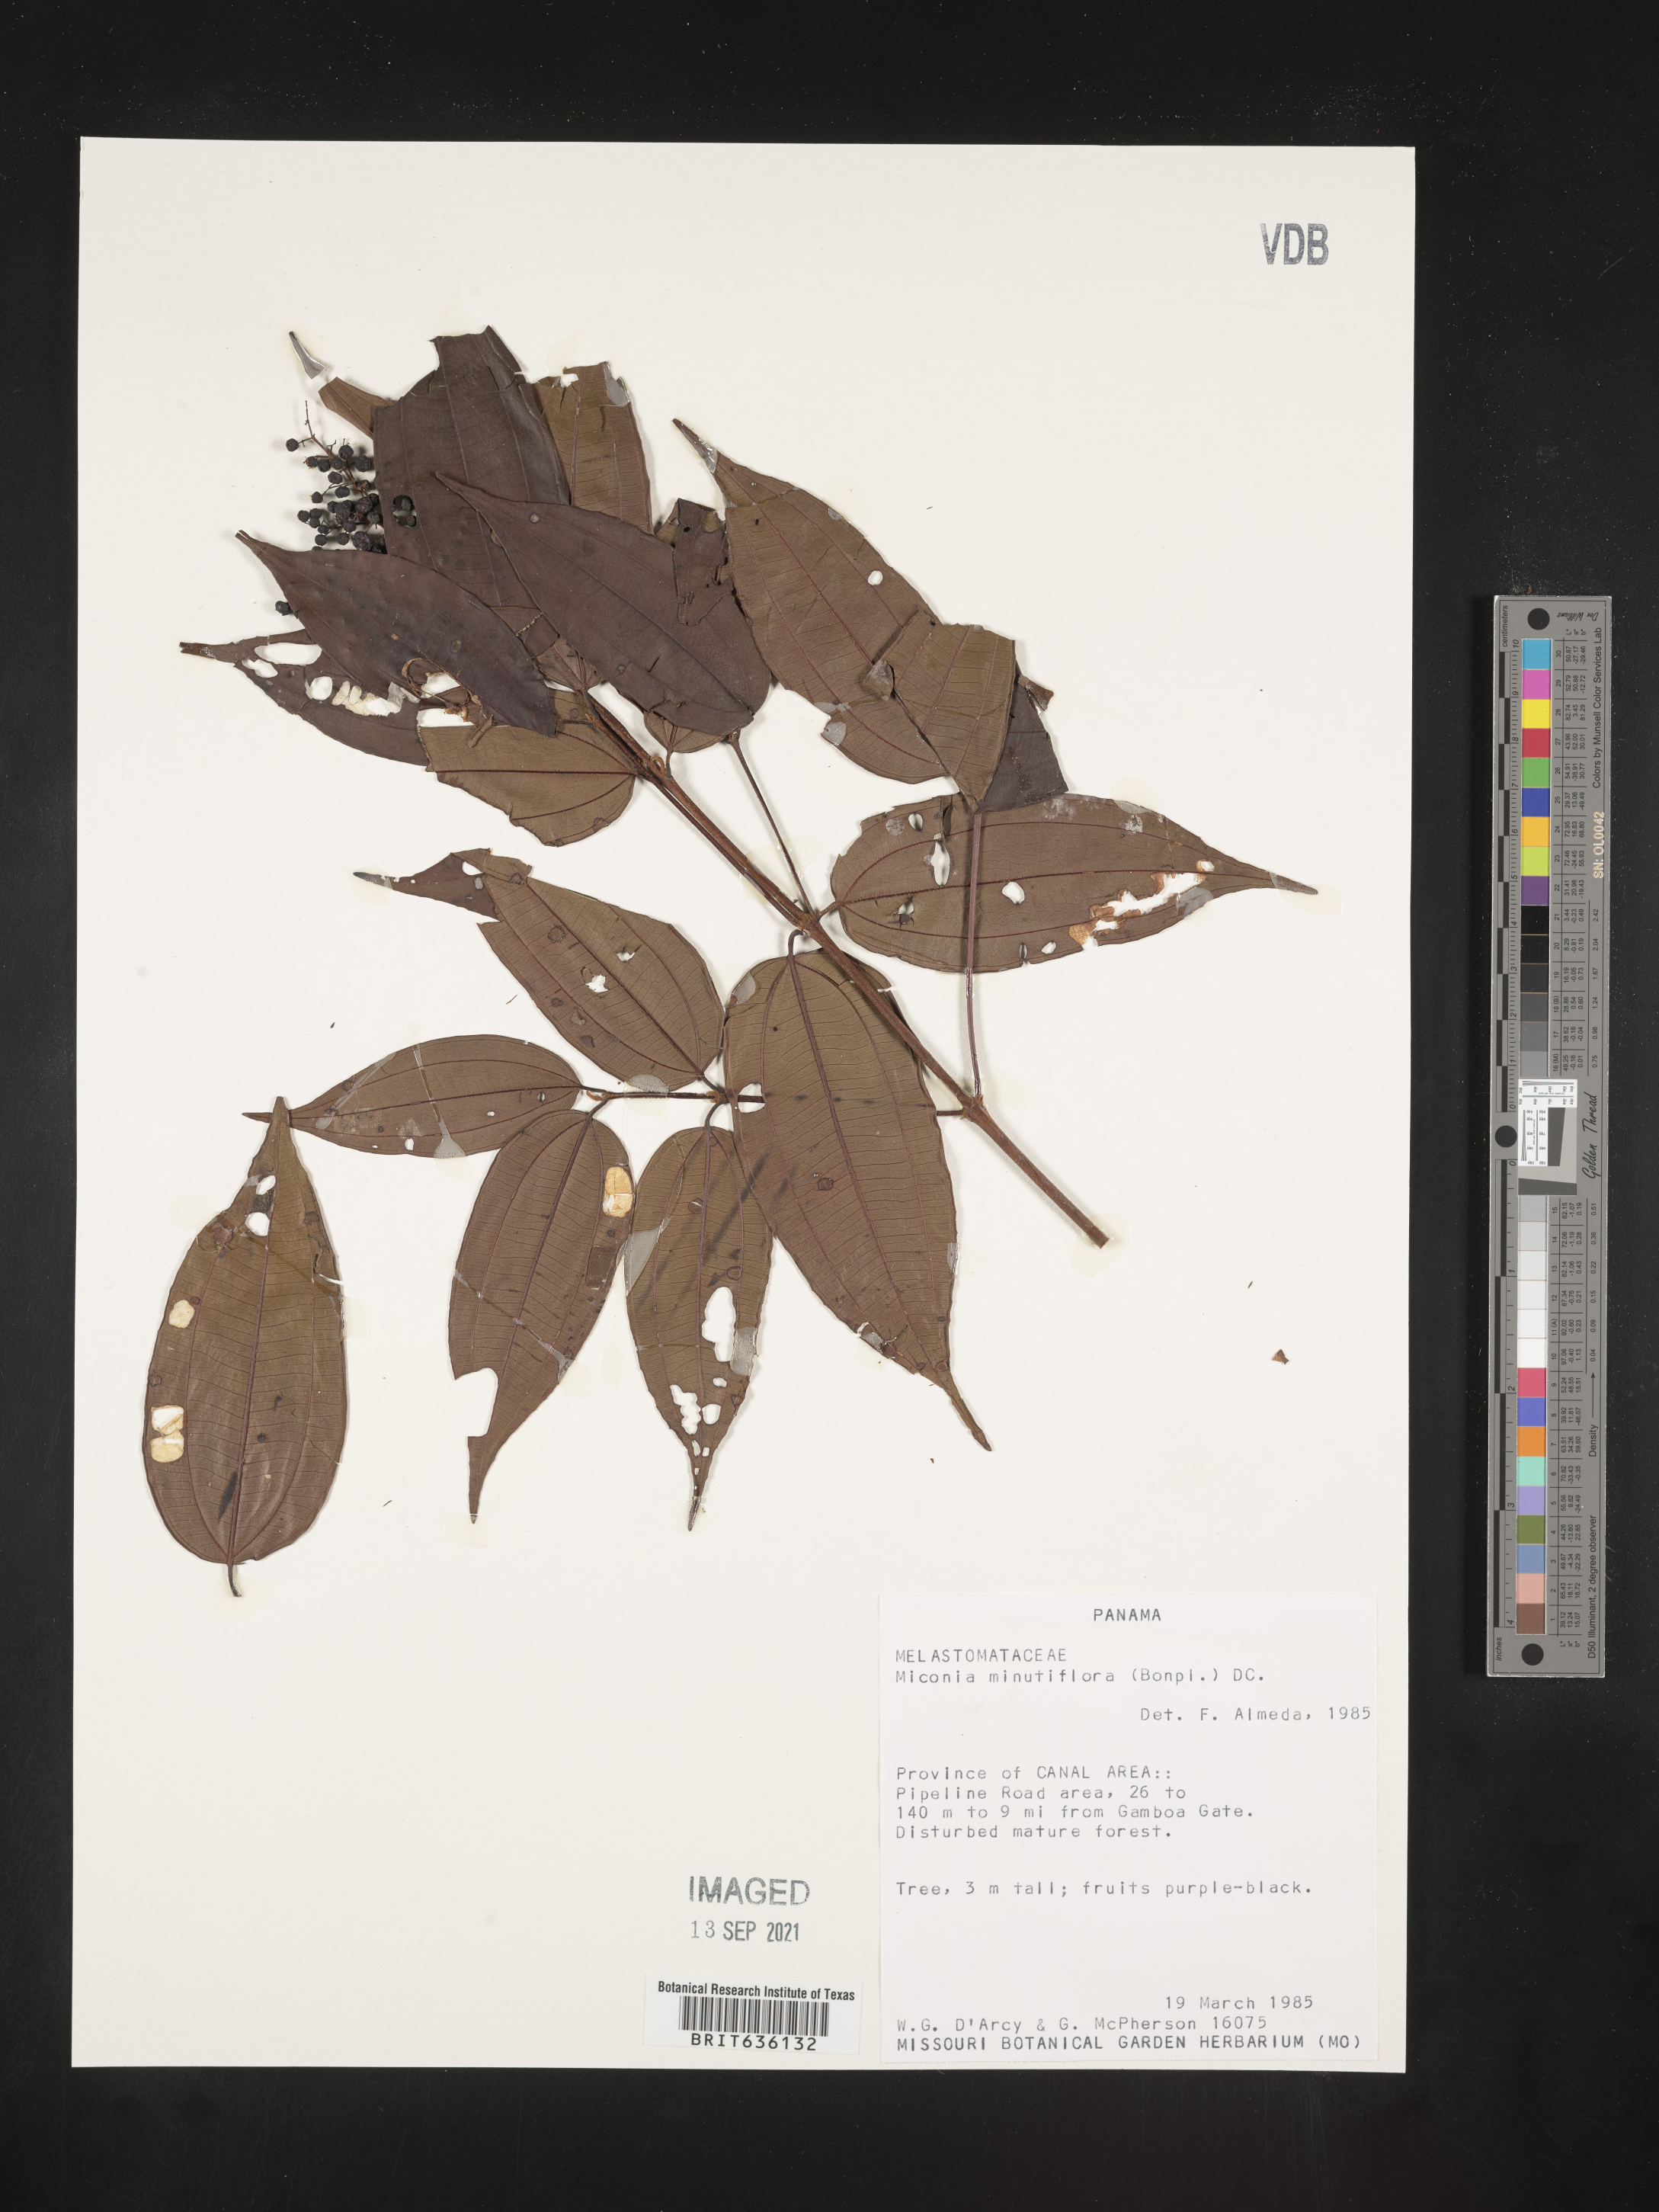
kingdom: Plantae
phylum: Tracheophyta
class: Magnoliopsida
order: Myrtales
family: Melastomataceae
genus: Miconia
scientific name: Miconia
